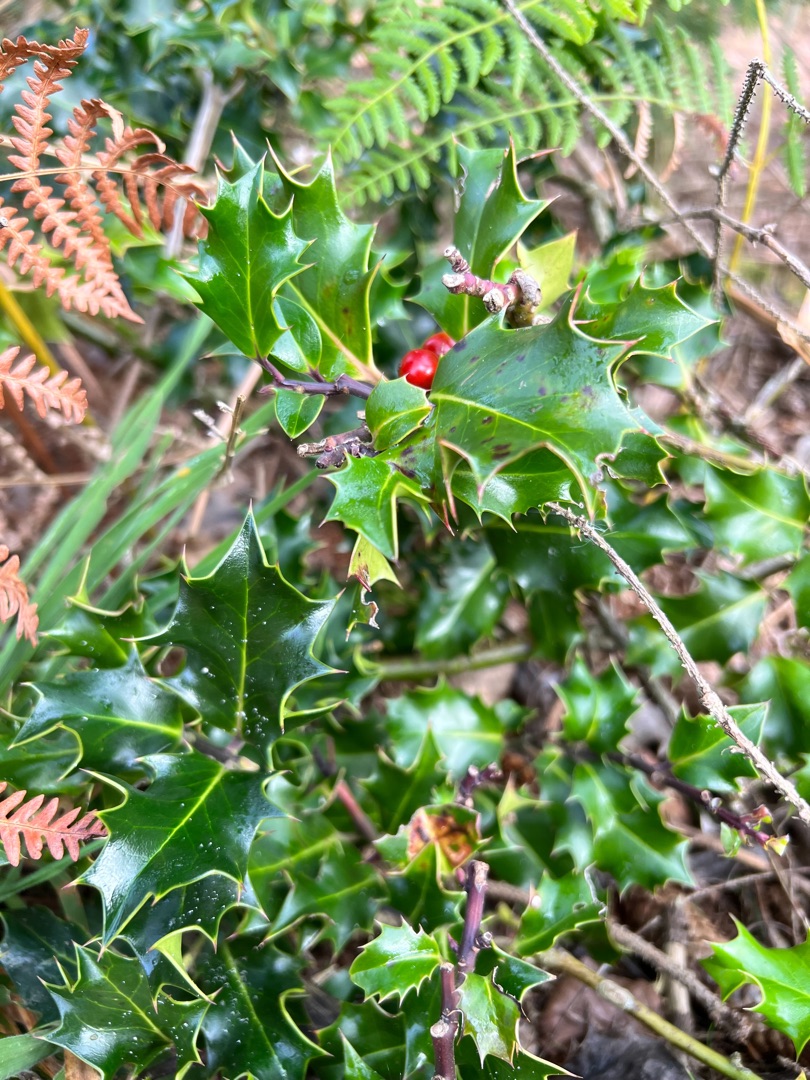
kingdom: Plantae
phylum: Tracheophyta
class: Magnoliopsida
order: Aquifoliales
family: Aquifoliaceae
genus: Ilex
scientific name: Ilex aquifolium
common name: Kristtorn
